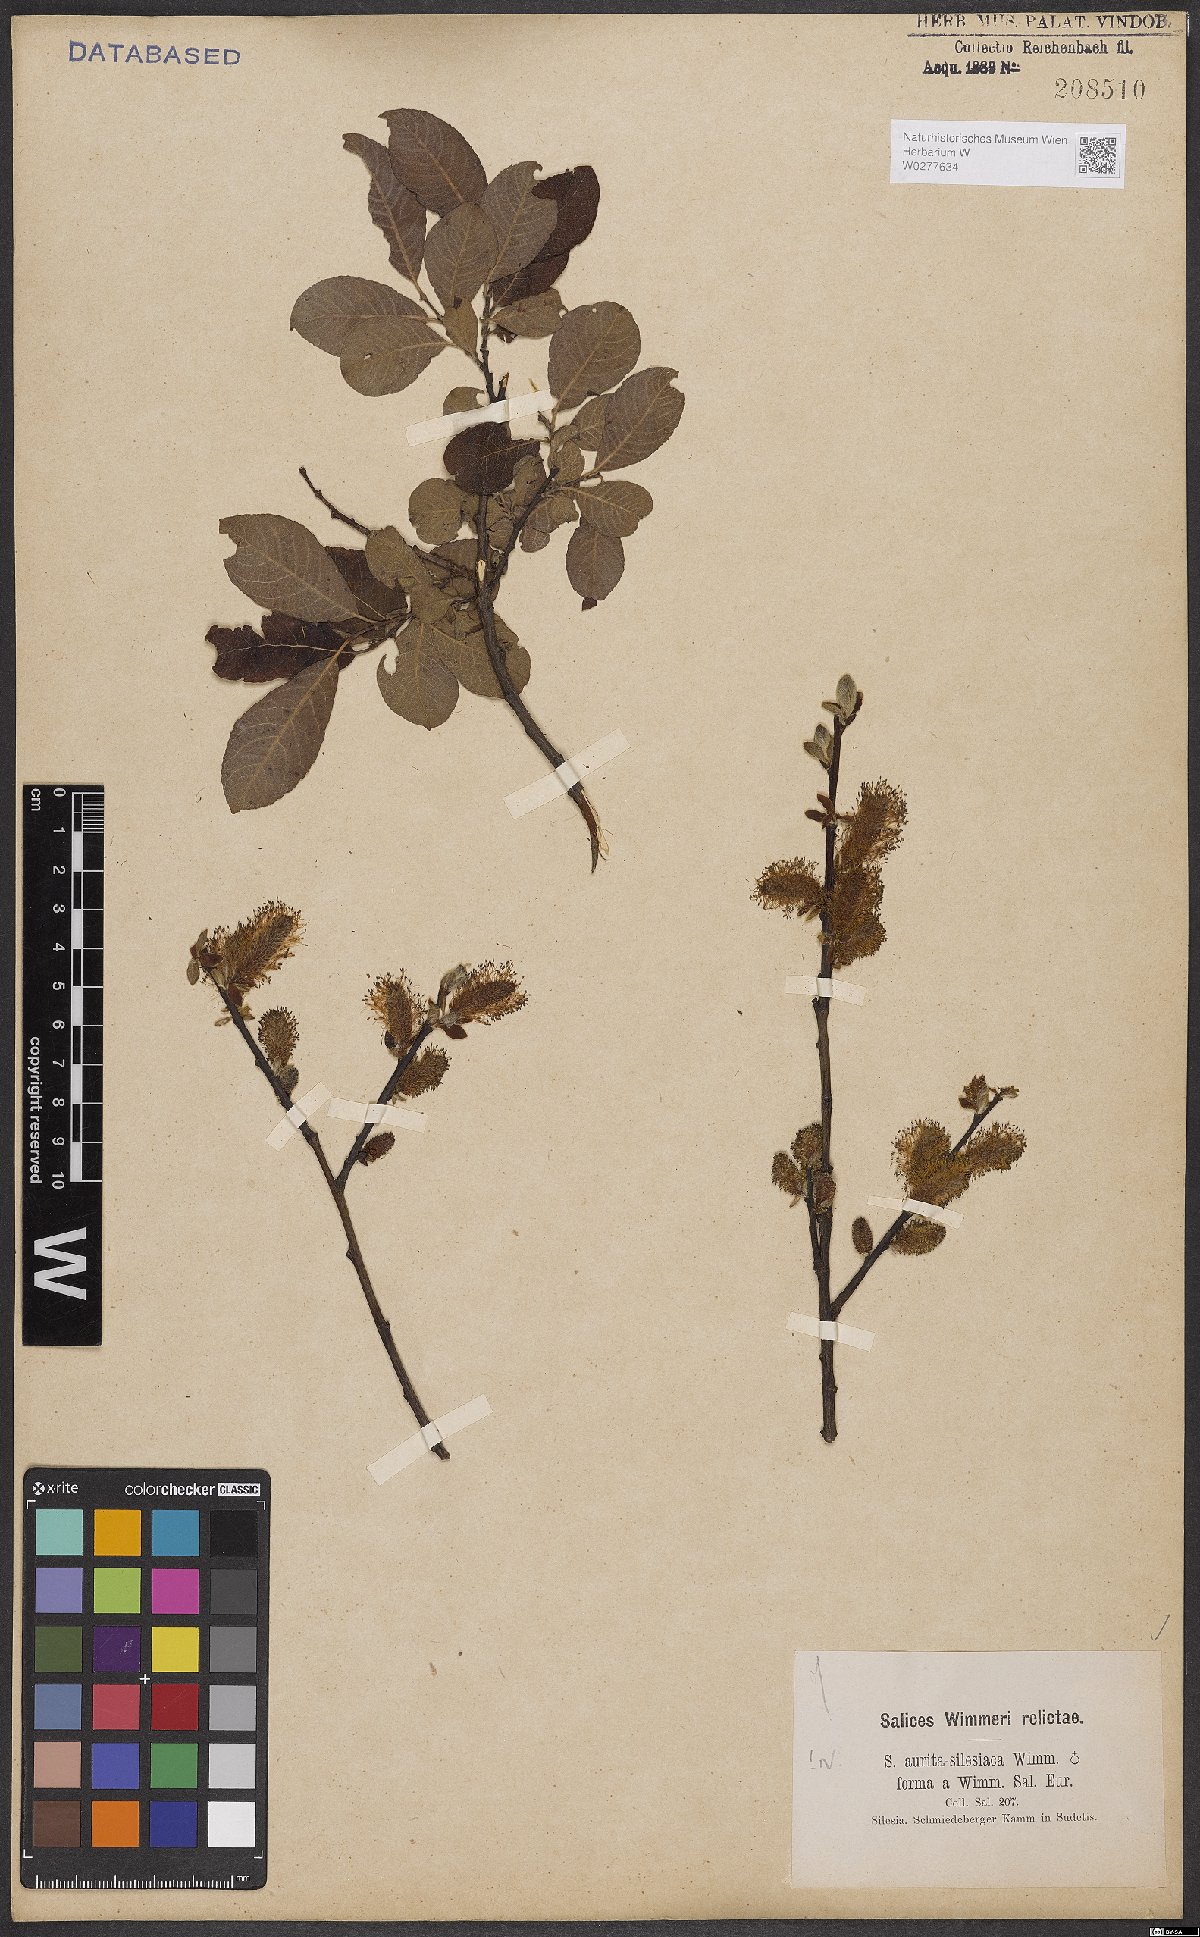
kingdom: Plantae
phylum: Tracheophyta
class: Magnoliopsida
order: Malpighiales
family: Salicaceae
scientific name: Salicaceae
